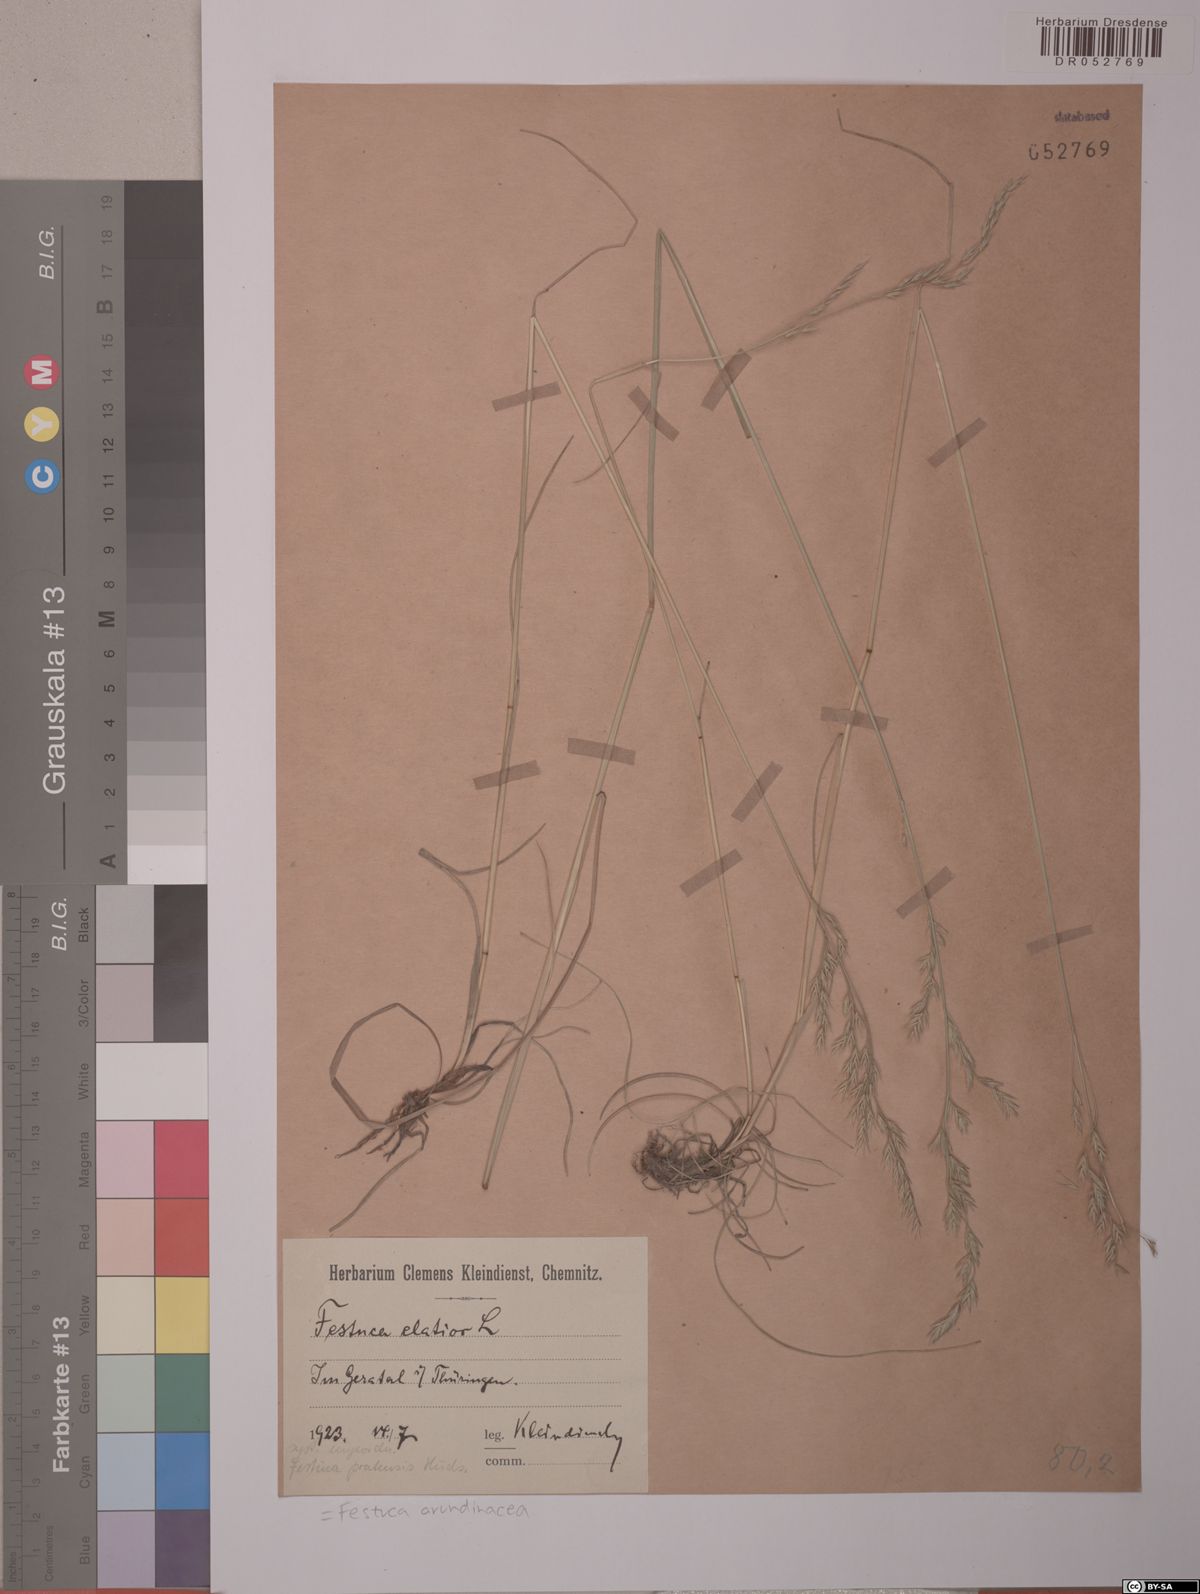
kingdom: Plantae
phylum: Tracheophyta
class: Liliopsida
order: Poales
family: Poaceae
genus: Lolium
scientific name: Lolium arundinaceum
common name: Reed fescue
